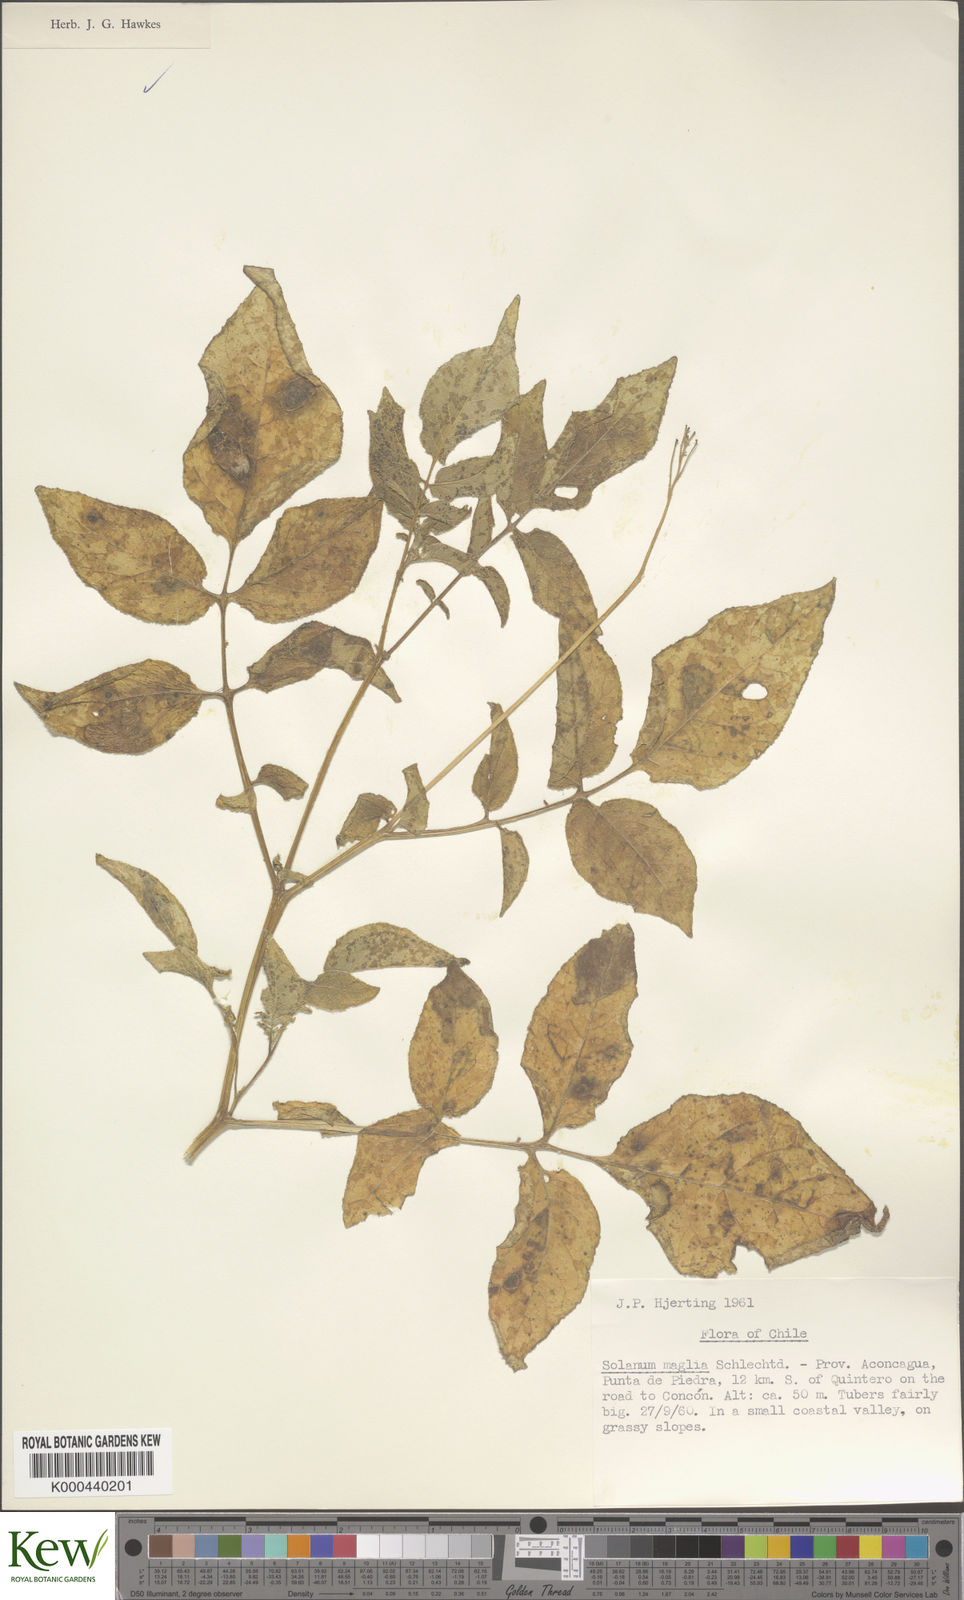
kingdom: Plantae
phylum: Tracheophyta
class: Magnoliopsida
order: Solanales
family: Solanaceae
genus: Solanum
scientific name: Solanum maglia
